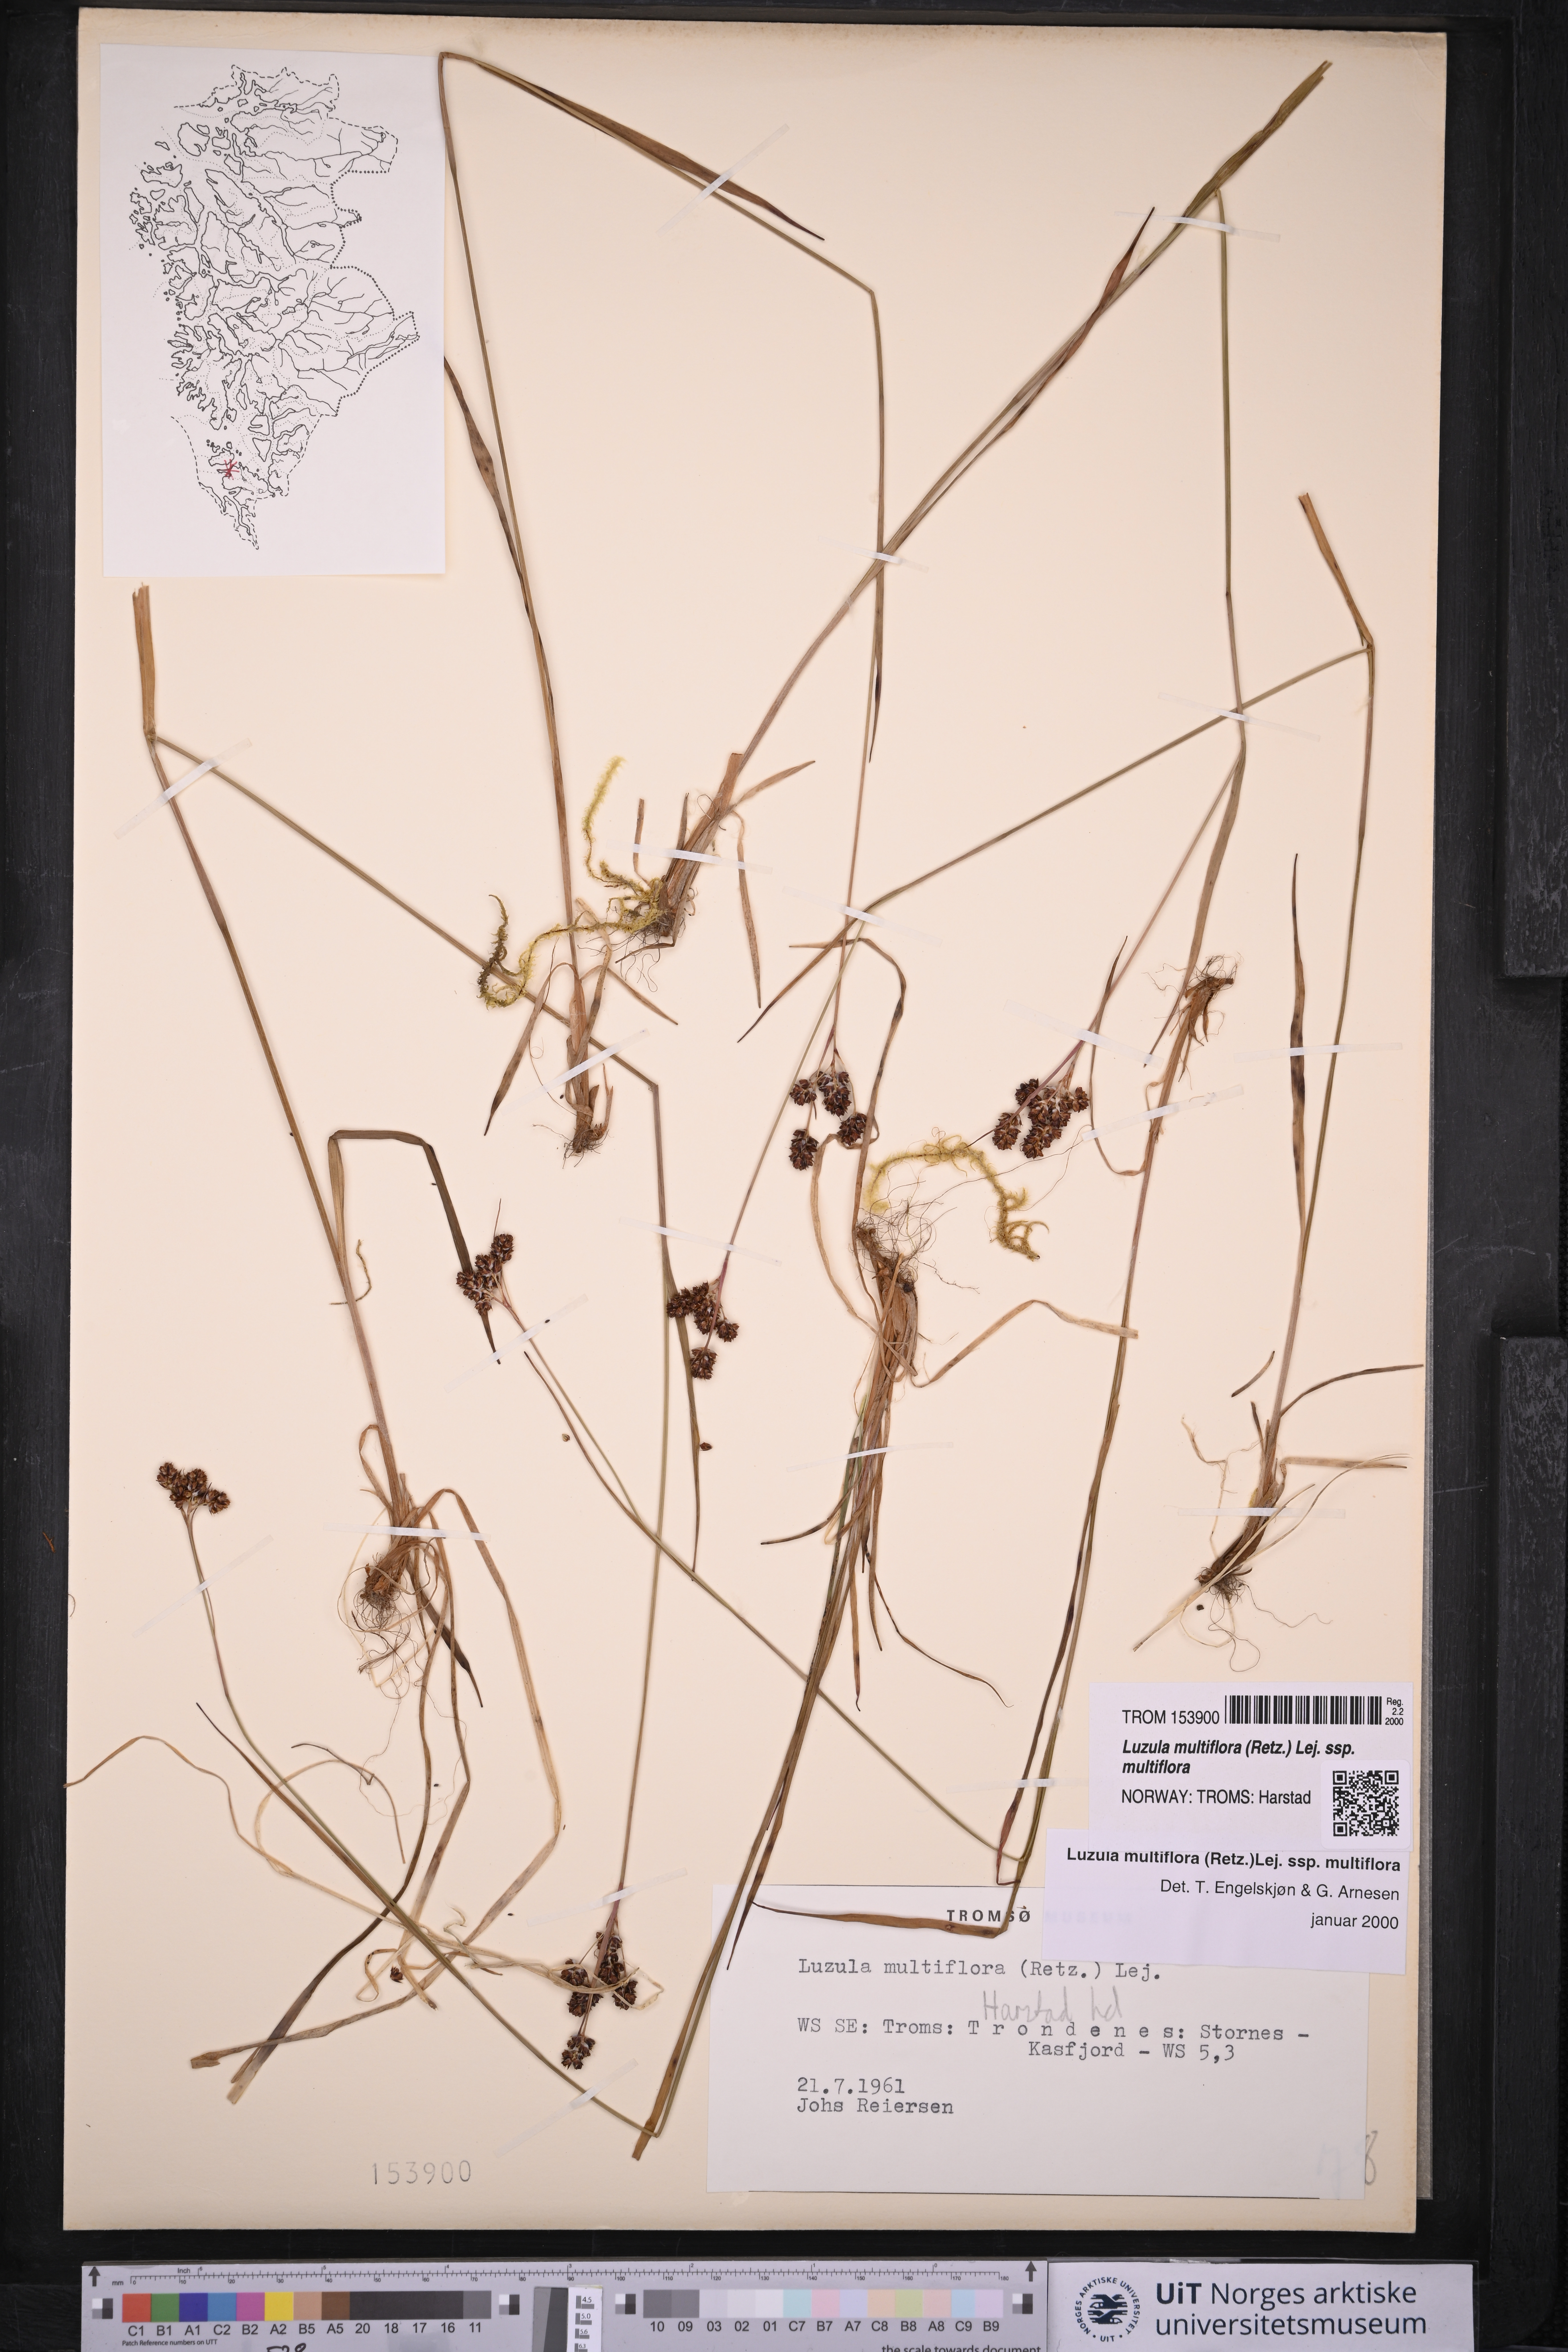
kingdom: Plantae
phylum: Tracheophyta
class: Liliopsida
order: Poales
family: Juncaceae
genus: Luzula
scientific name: Luzula multiflora
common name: Heath wood-rush
